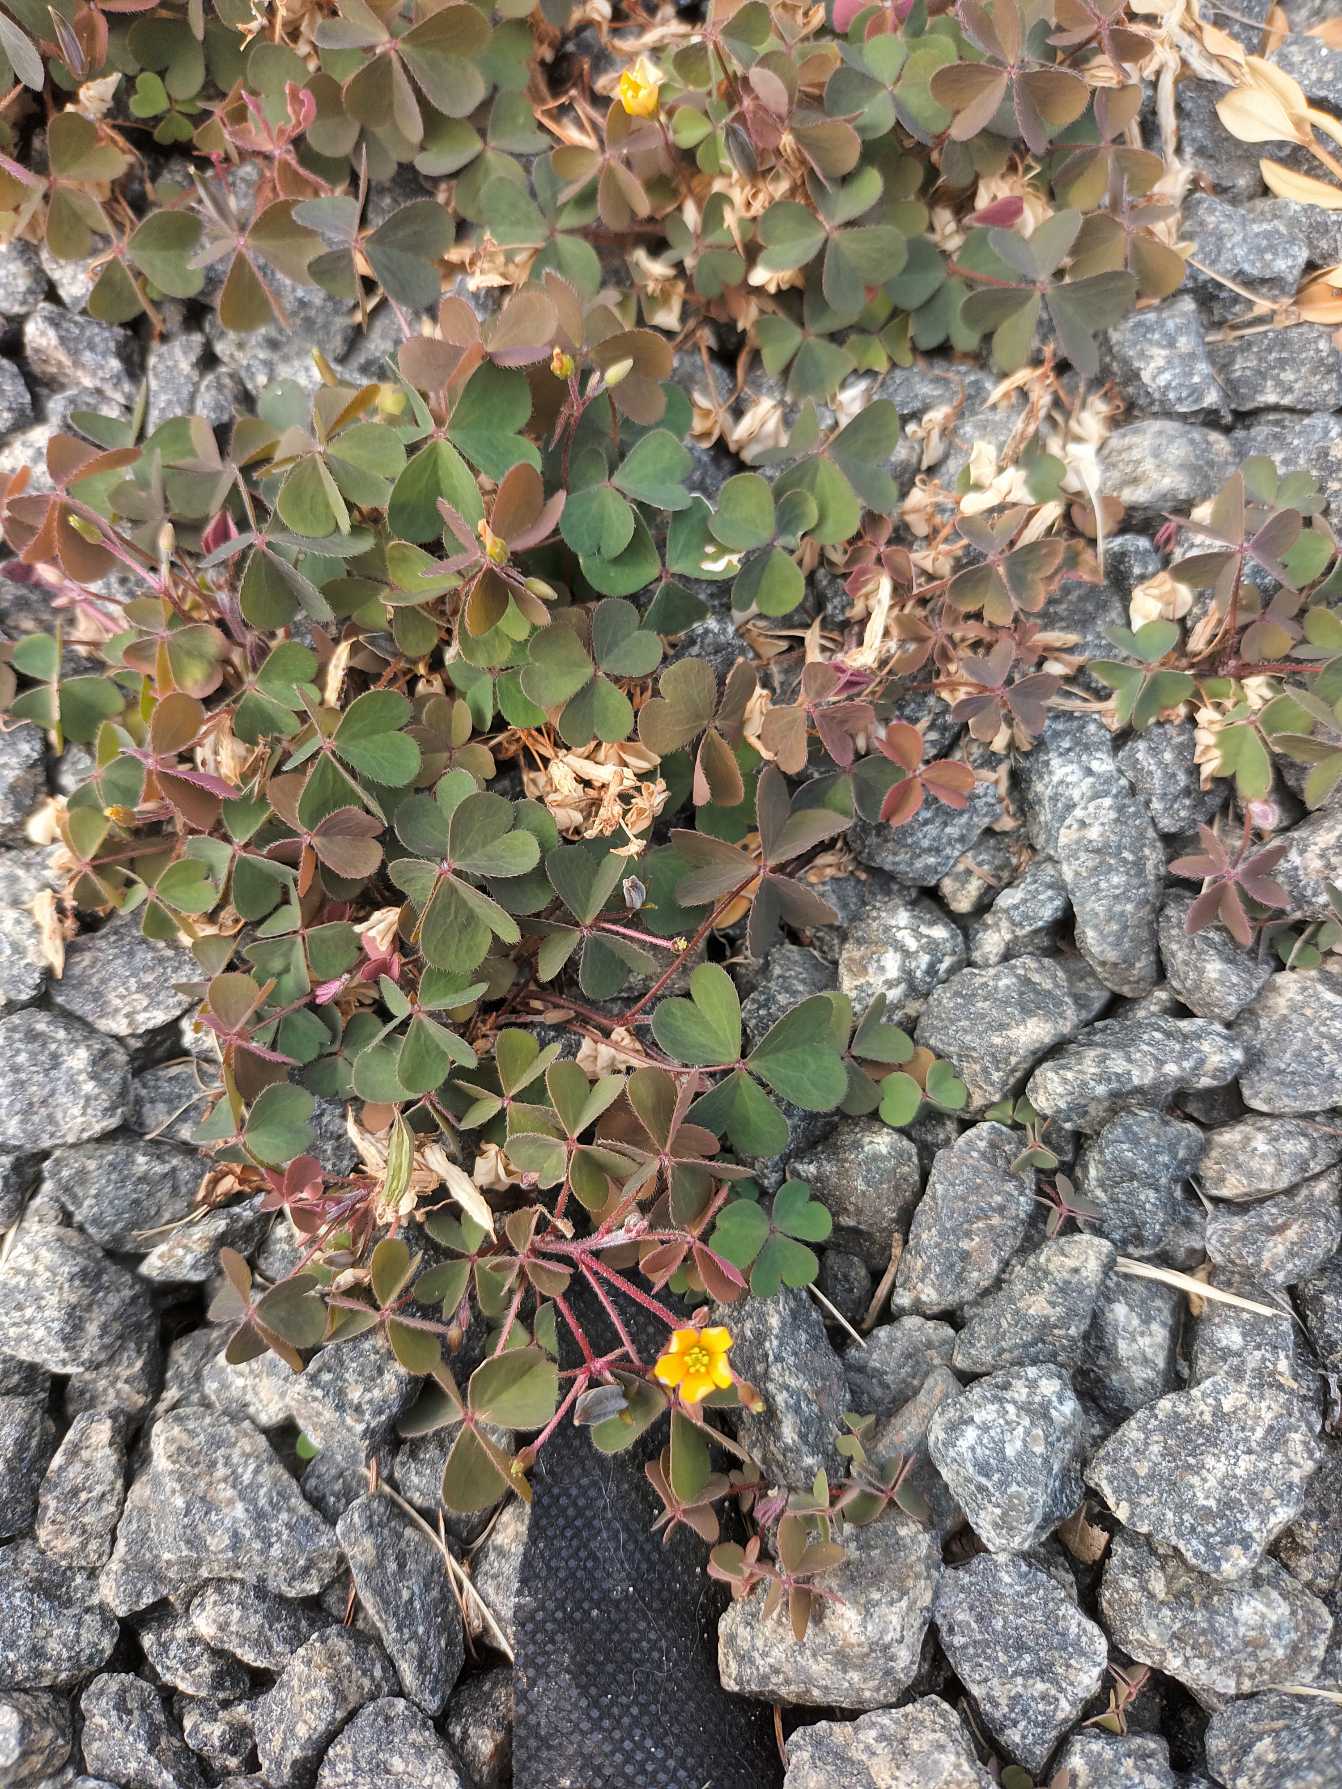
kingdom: Plantae
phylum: Tracheophyta
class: Magnoliopsida
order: Oxalidales
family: Oxalidaceae
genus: Oxalis
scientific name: Oxalis corniculata
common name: Nedliggende surkløver
